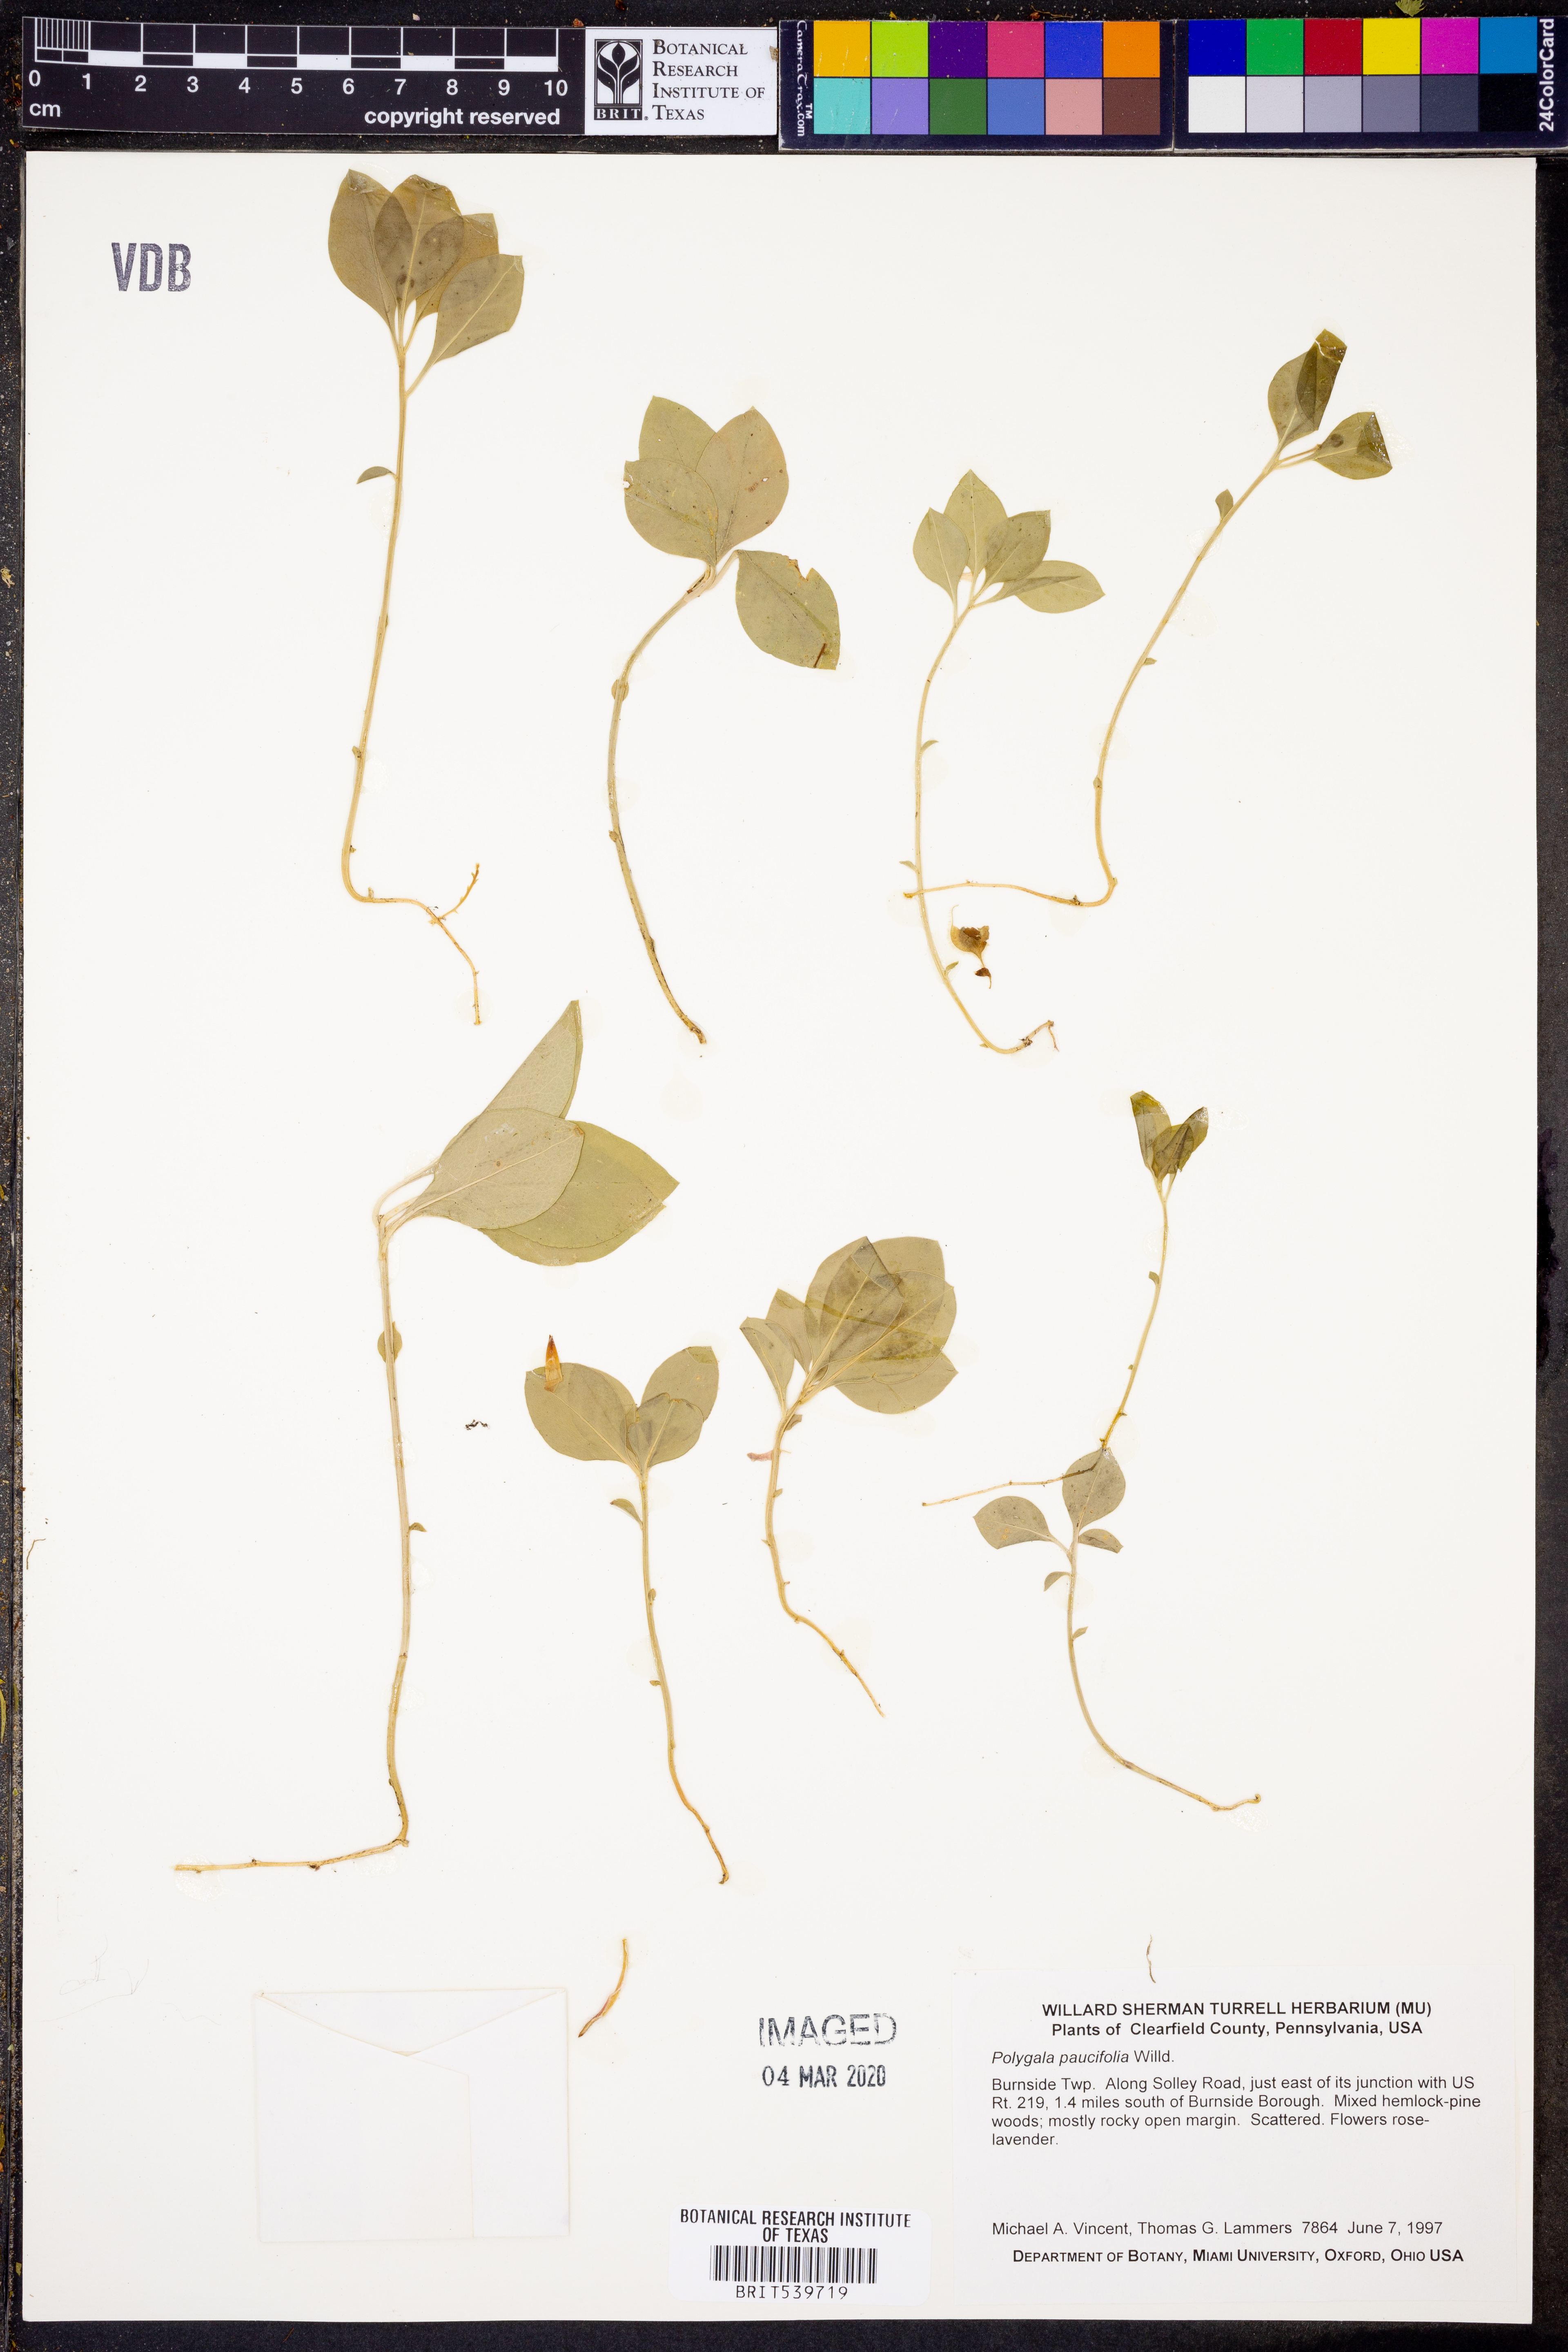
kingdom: Plantae
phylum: Tracheophyta
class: Magnoliopsida
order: Fabales
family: Polygalaceae
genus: Polygaloides
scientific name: Polygaloides paucifolia
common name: Bird-on-the-wing
